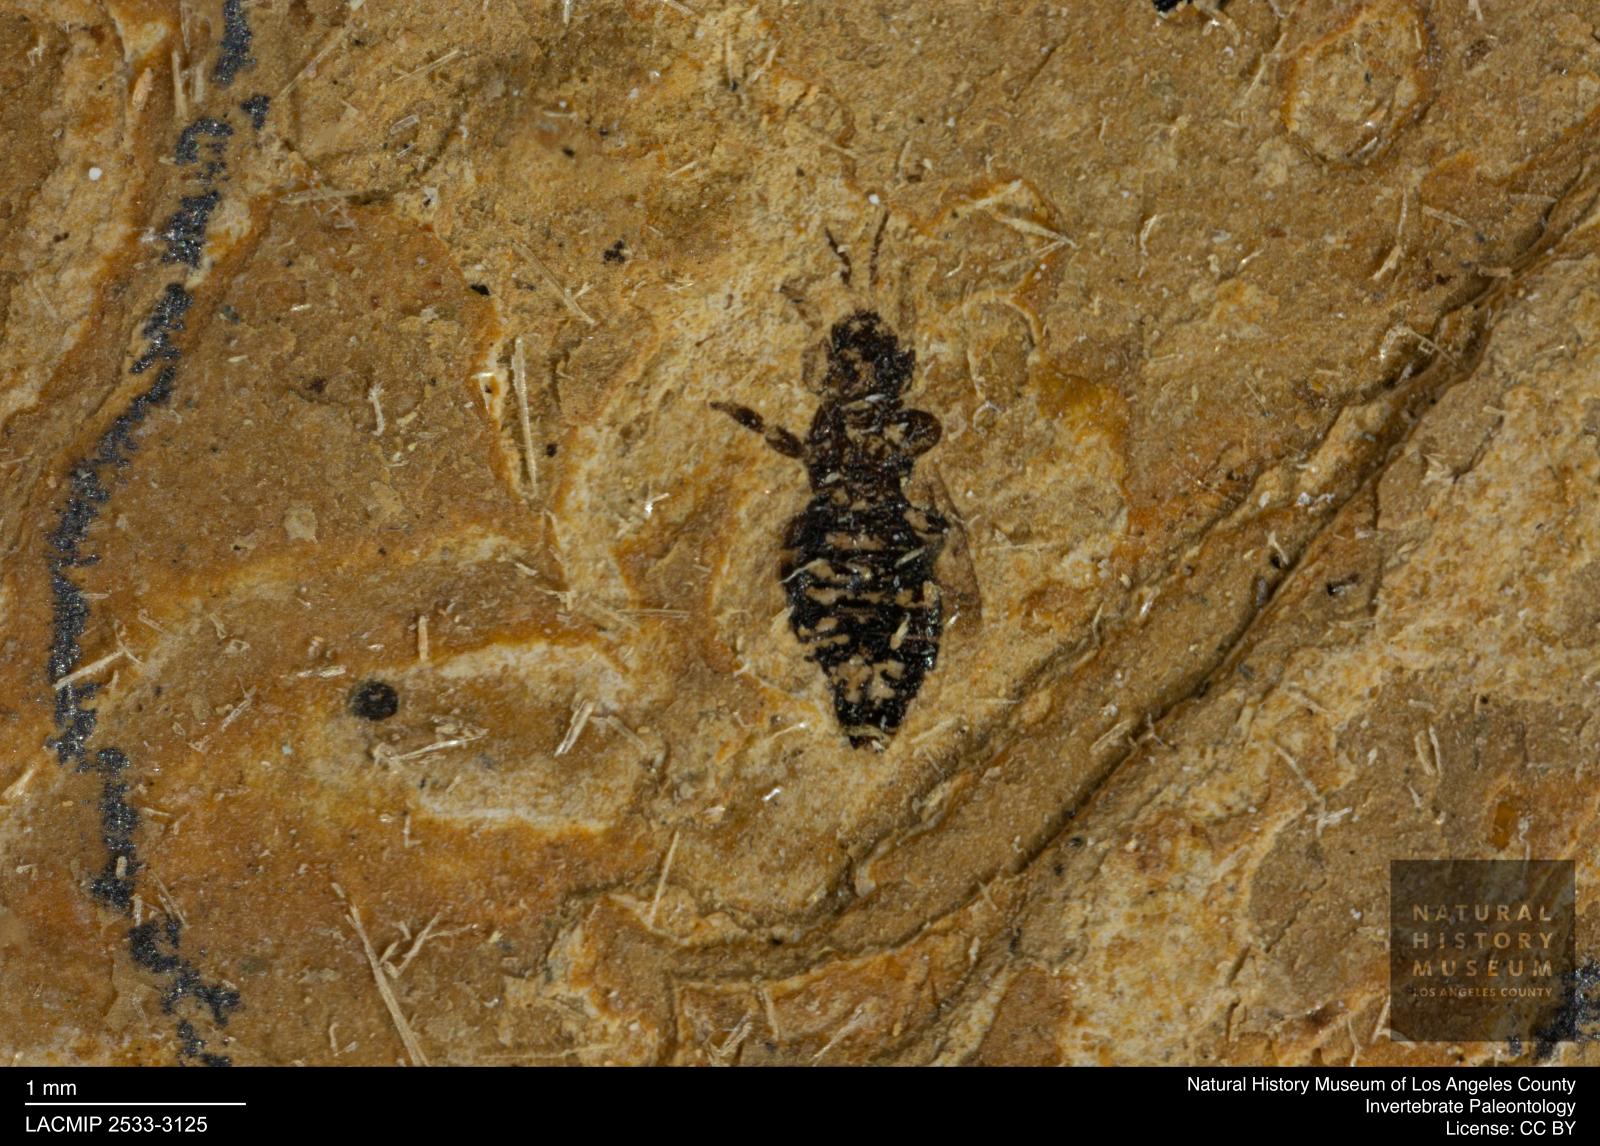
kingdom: Animalia
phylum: Arthropoda
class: Insecta
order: Thysanoptera
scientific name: Thysanoptera
